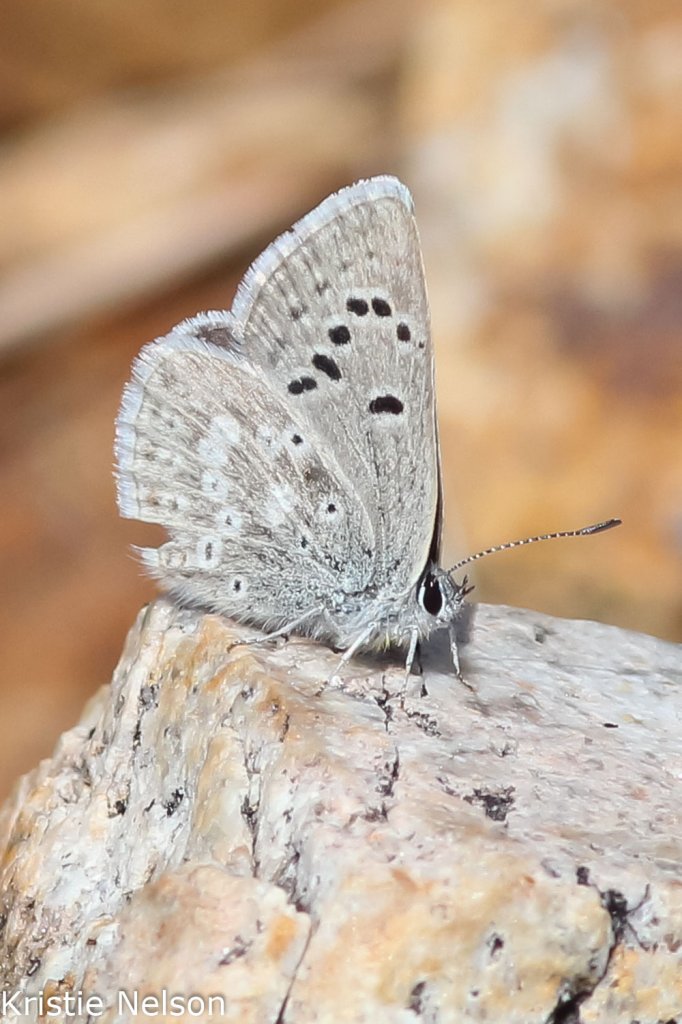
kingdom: Animalia
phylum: Arthropoda
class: Insecta
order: Lepidoptera
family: Lycaenidae
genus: Icaricia
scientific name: Icaricia icarioides
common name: Boisduval's Blue
